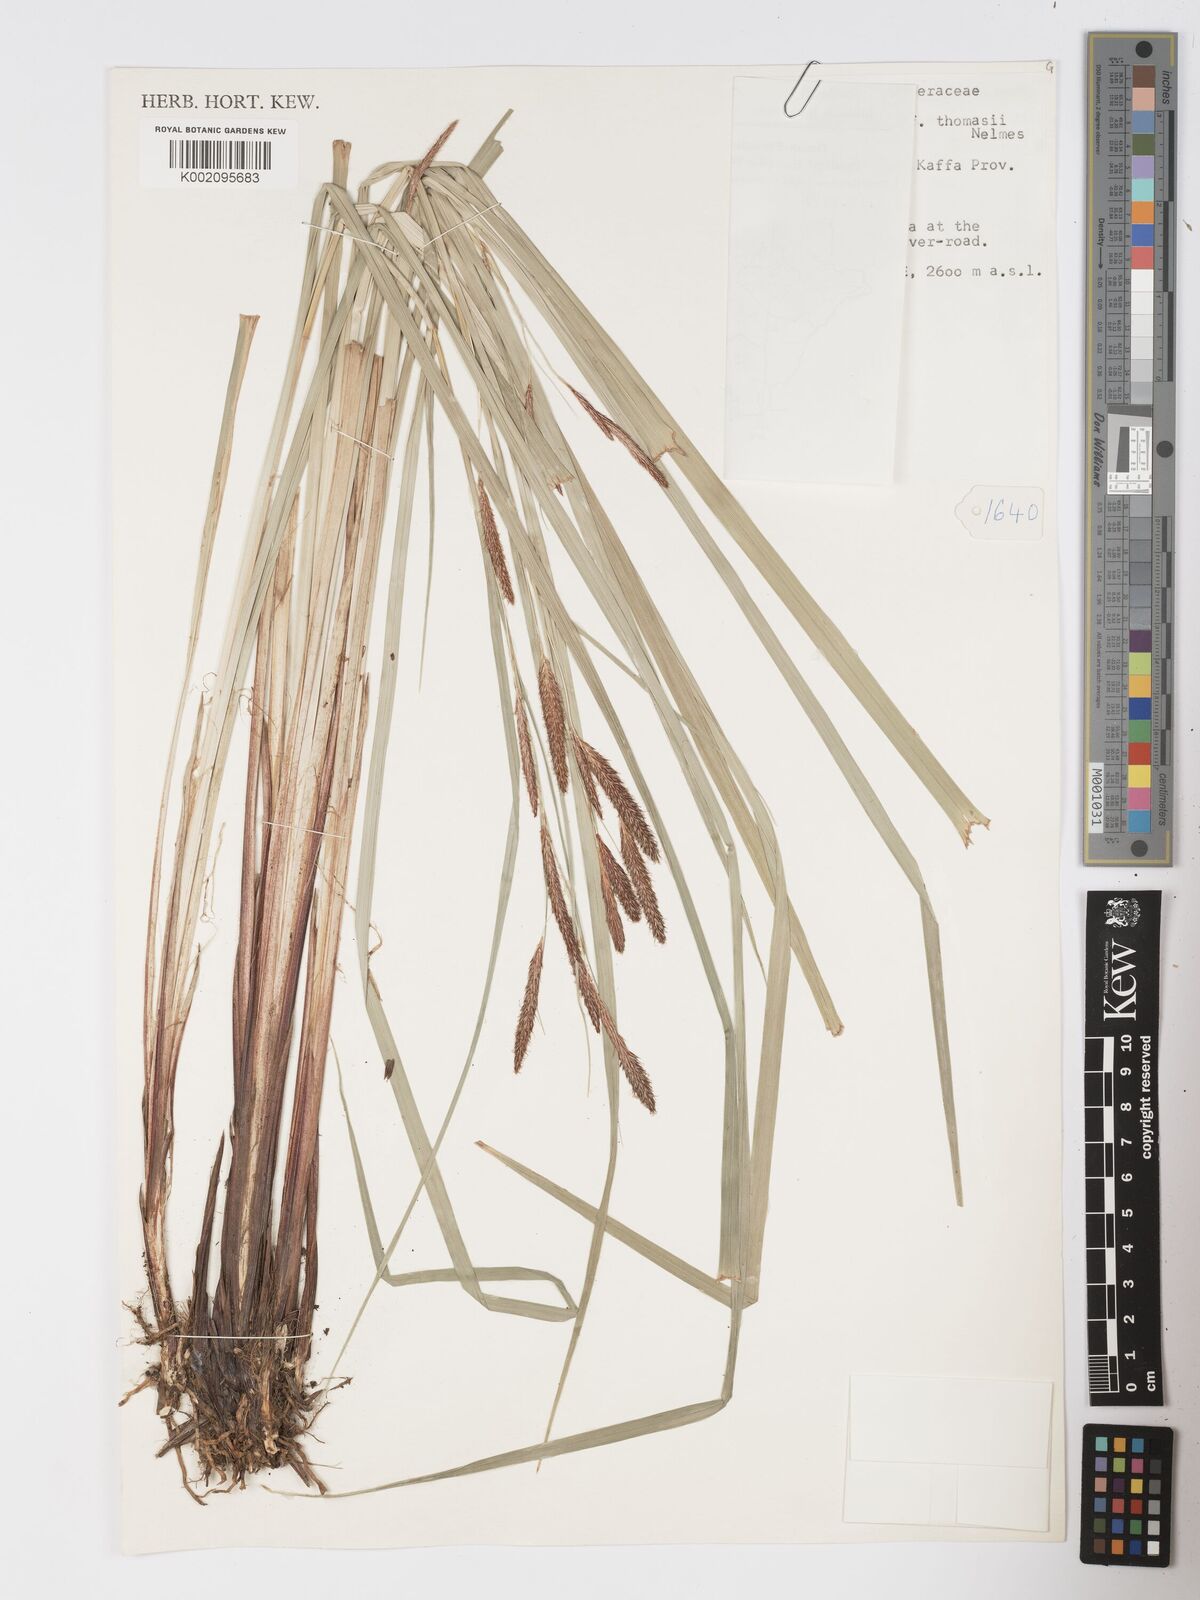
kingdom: Plantae
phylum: Tracheophyta
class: Liliopsida
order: Poales
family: Cyperaceae
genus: Carex
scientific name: Carex mannii
